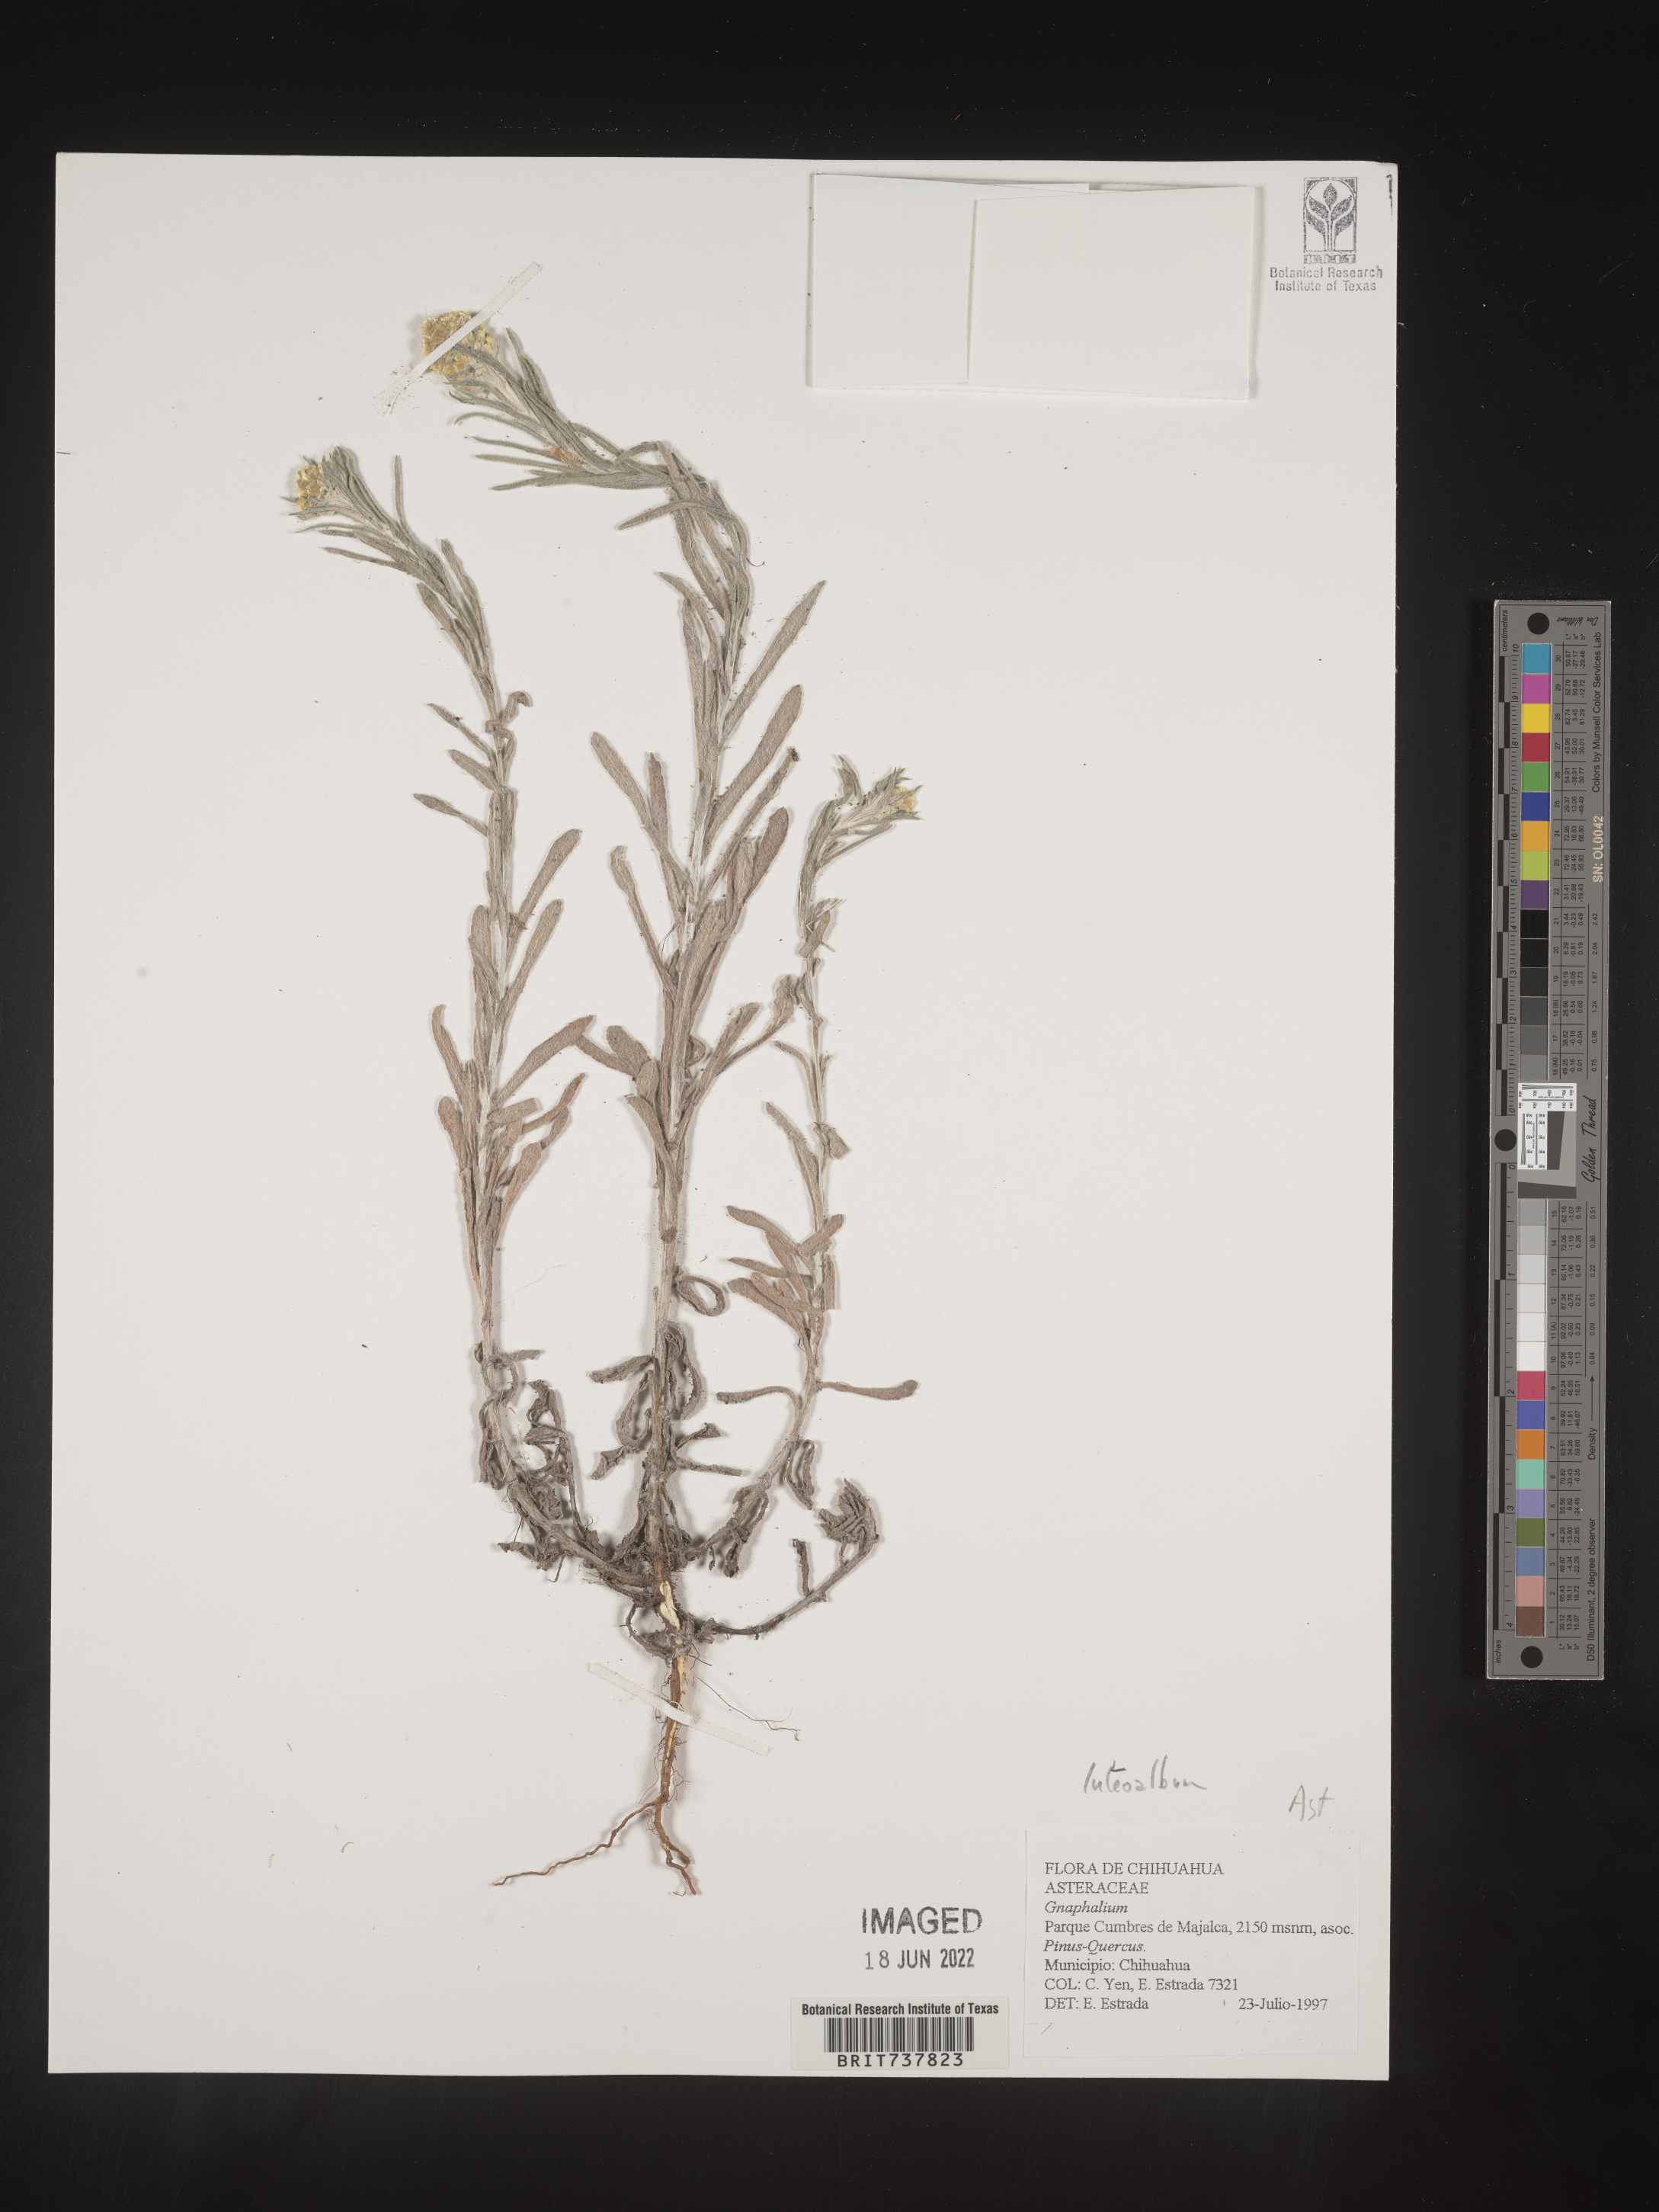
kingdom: Plantae
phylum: Tracheophyta
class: Magnoliopsida
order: Asterales
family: Asteraceae
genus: Helichrysum
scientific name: Helichrysum luteoalbum
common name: Daisy
